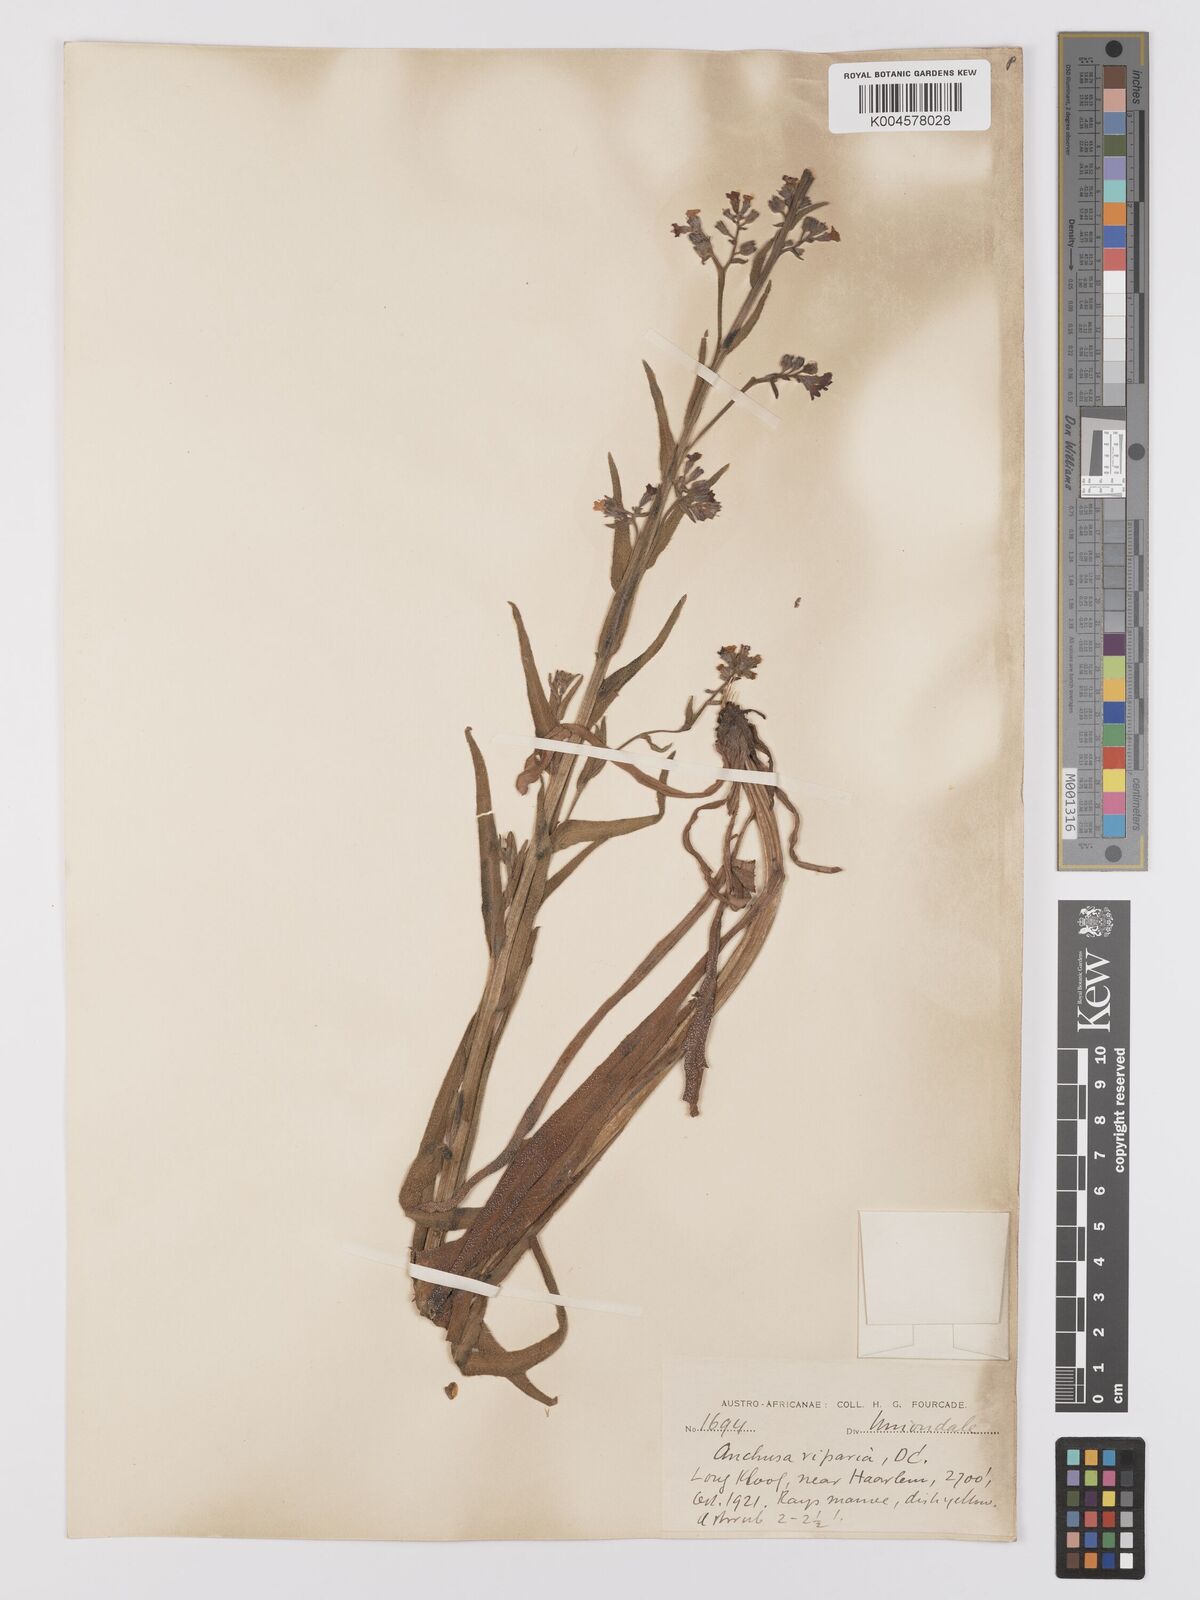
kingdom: Plantae
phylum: Tracheophyta
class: Magnoliopsida
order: Boraginales
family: Boraginaceae
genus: Anchusa
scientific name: Anchusa capensis
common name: Cape bugloss
